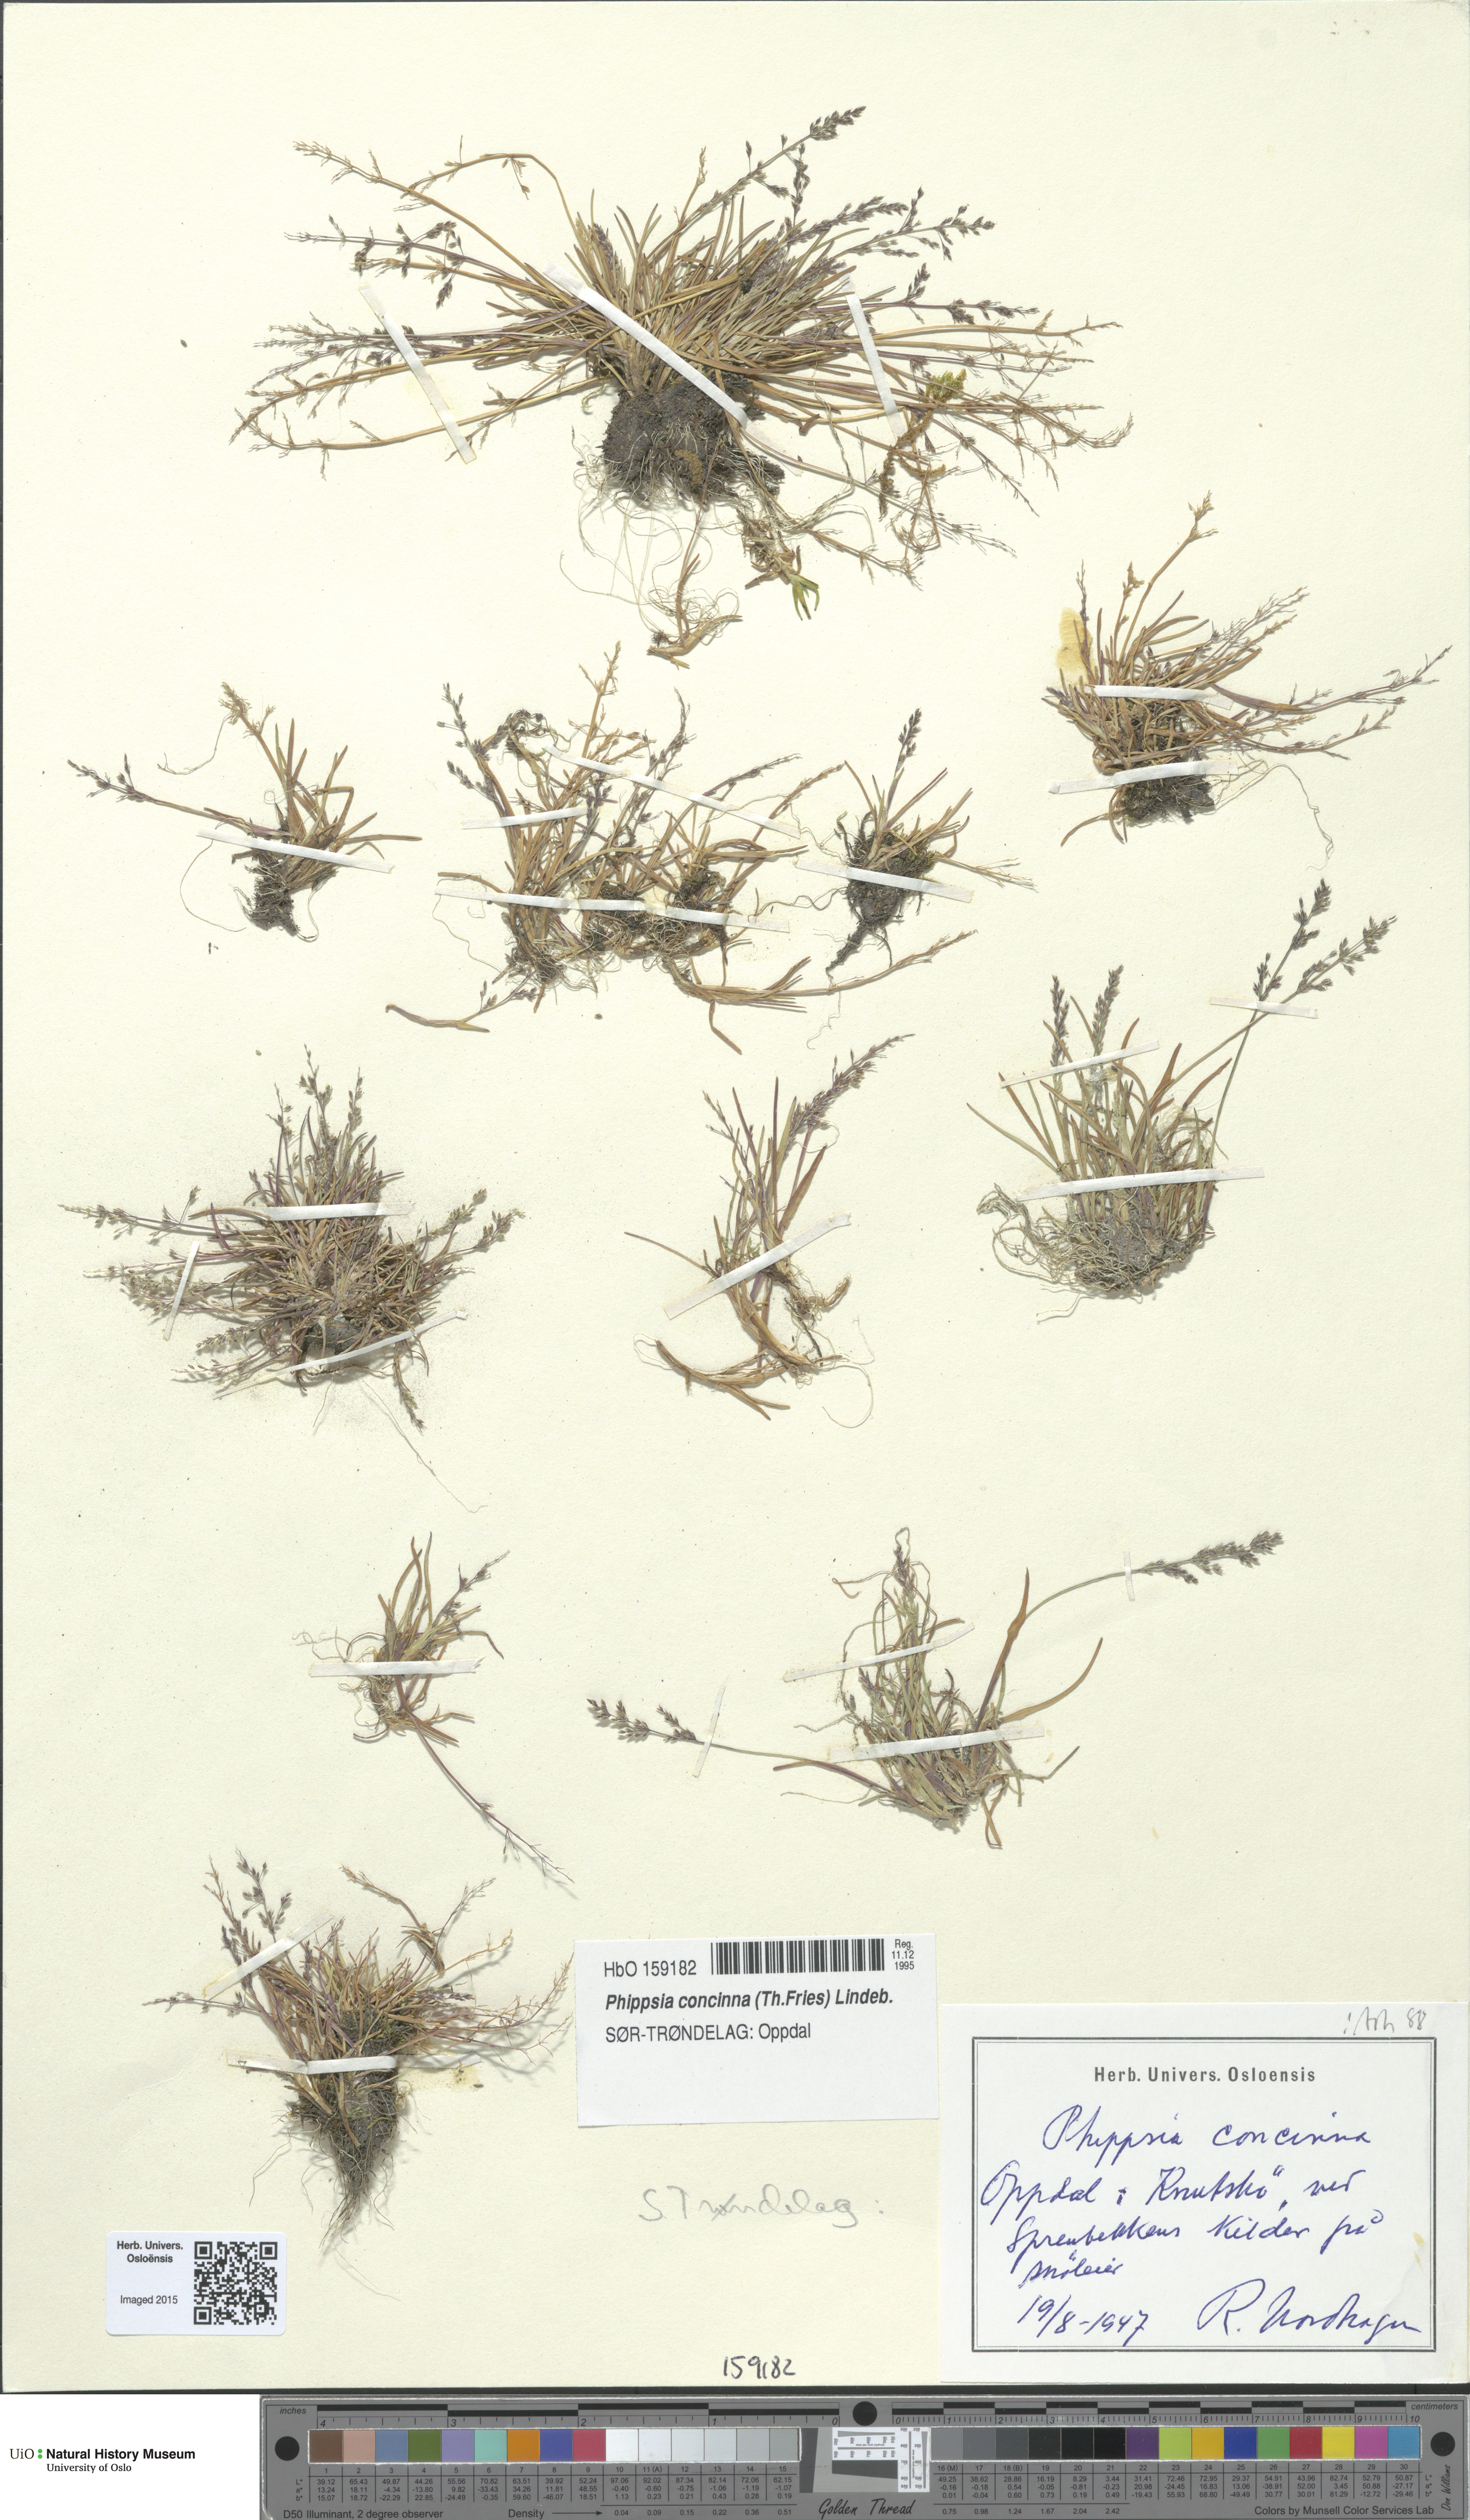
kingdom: Plantae
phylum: Tracheophyta
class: Liliopsida
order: Poales
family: Poaceae
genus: Phippsia
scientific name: Phippsia concinna
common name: Snowgrass
